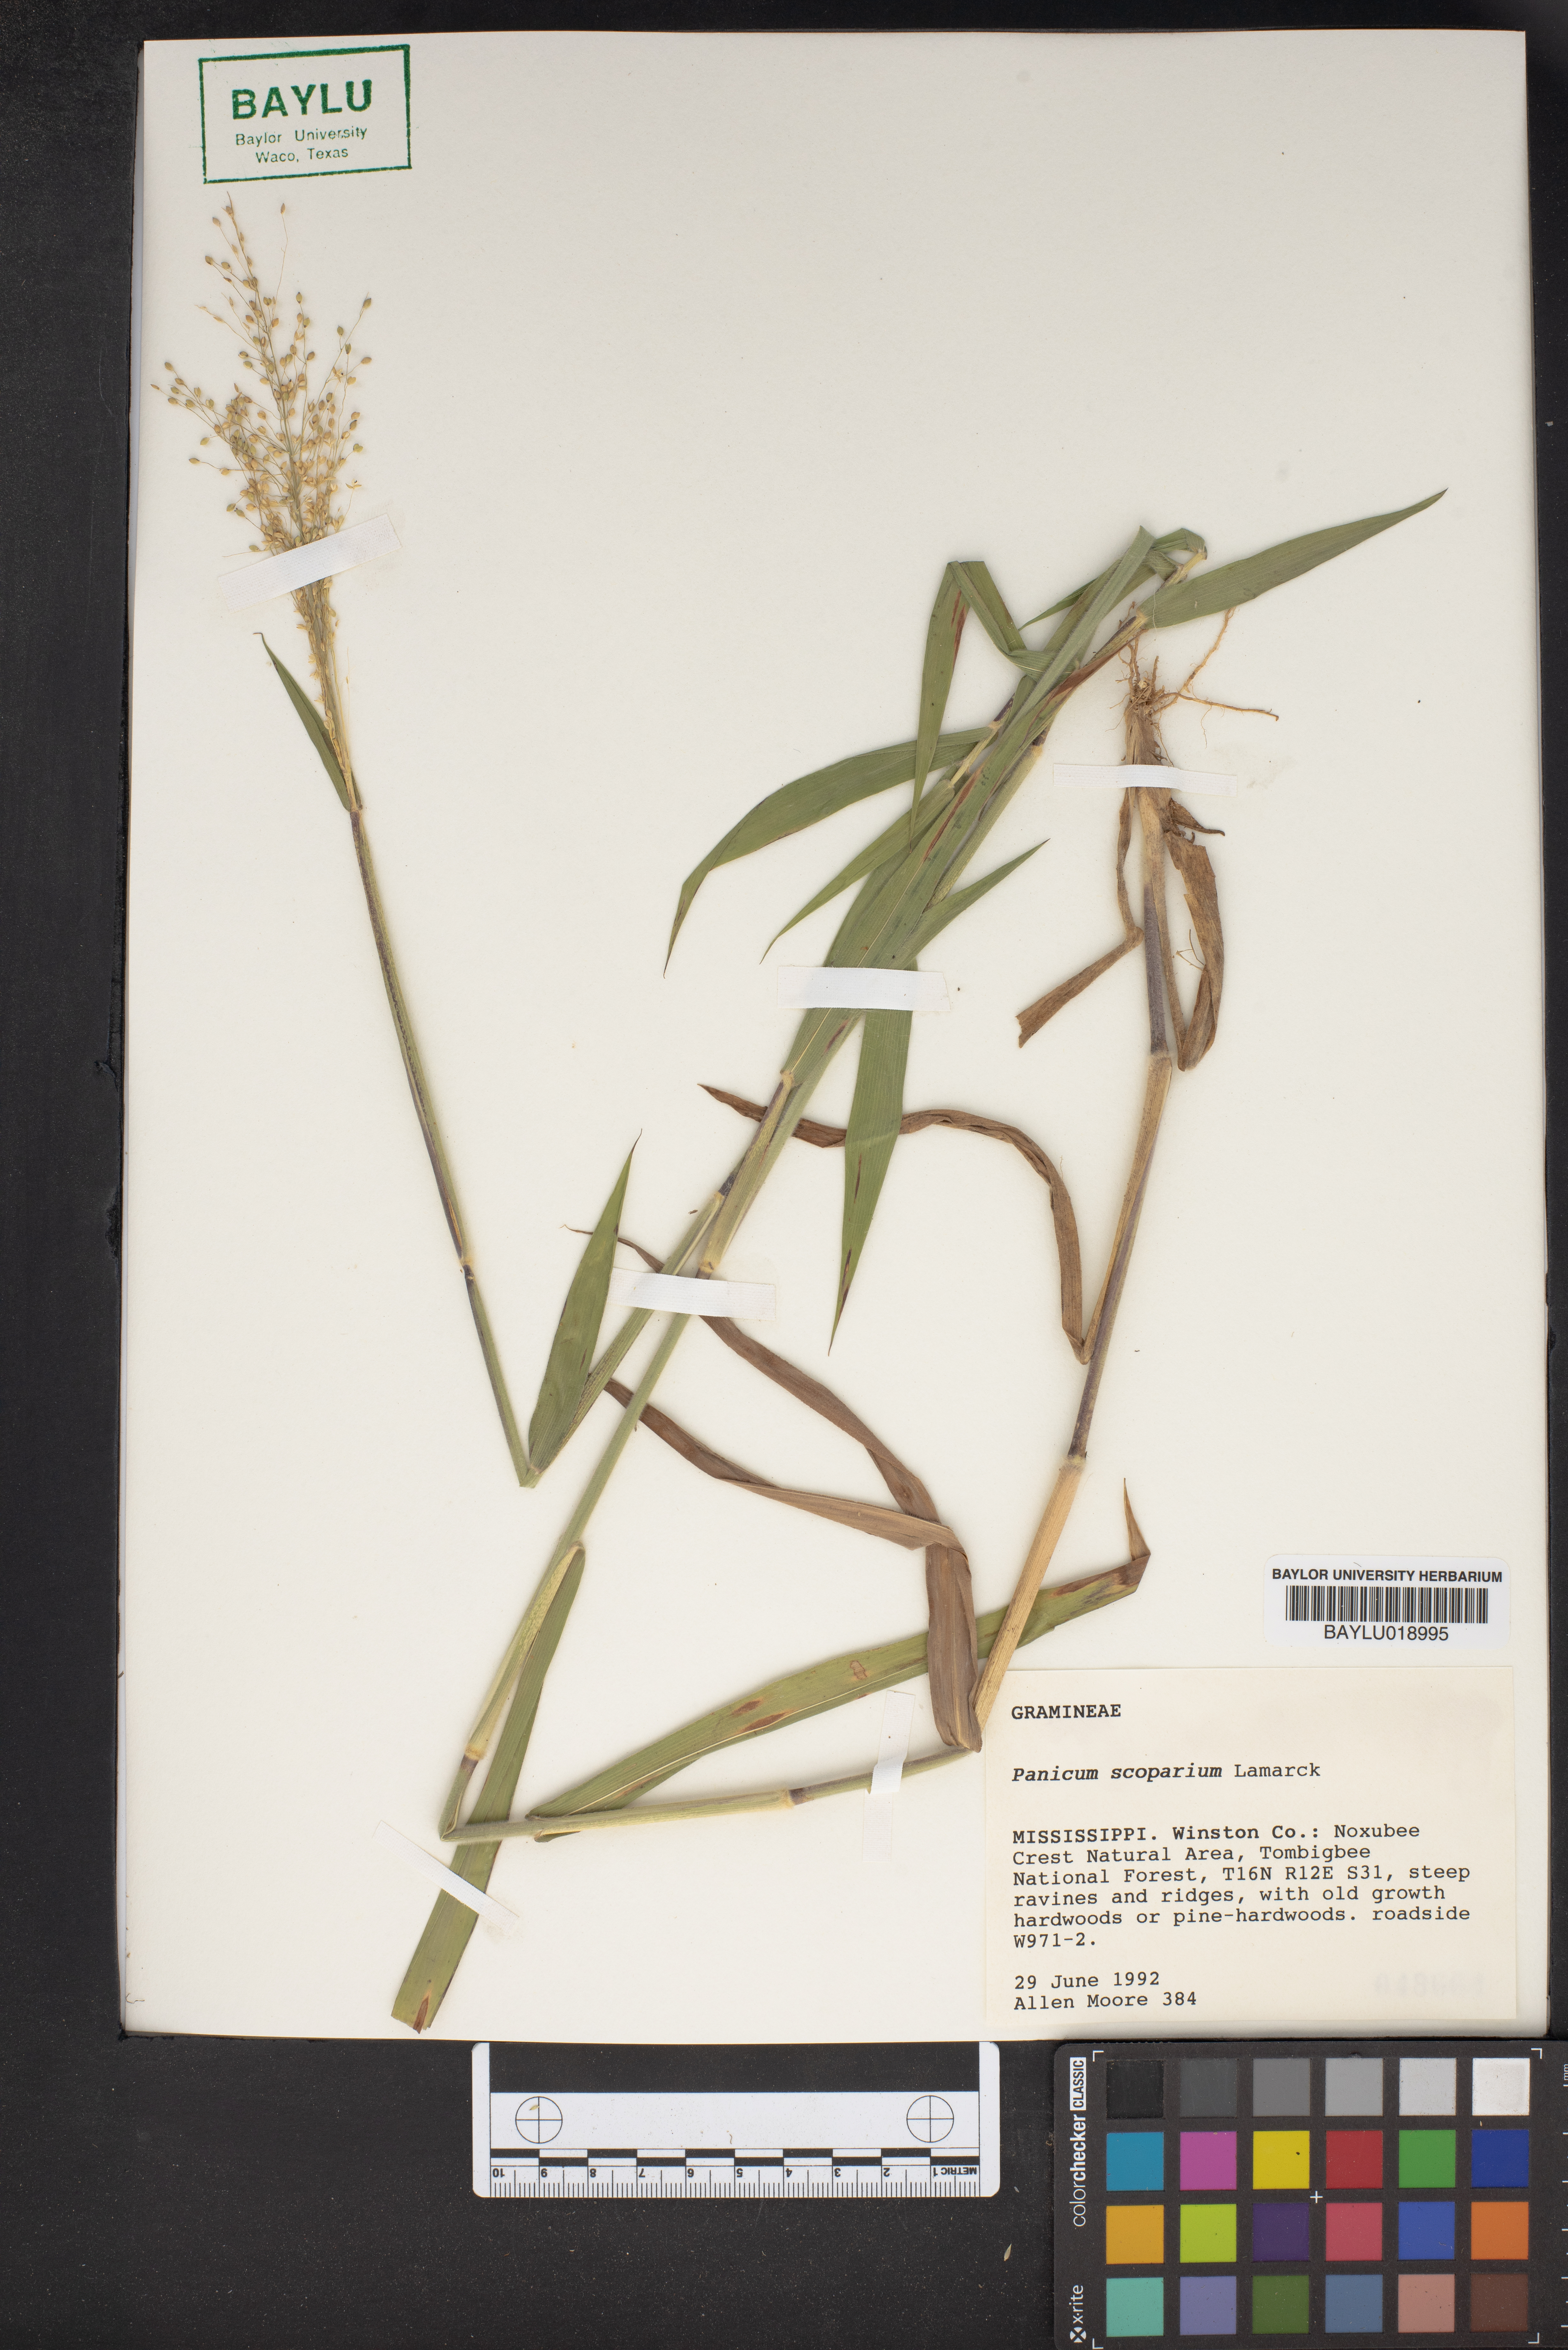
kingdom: Plantae
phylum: Tracheophyta
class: Liliopsida
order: Poales
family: Poaceae
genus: Dichanthelium
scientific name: Dichanthelium scribnerianum
